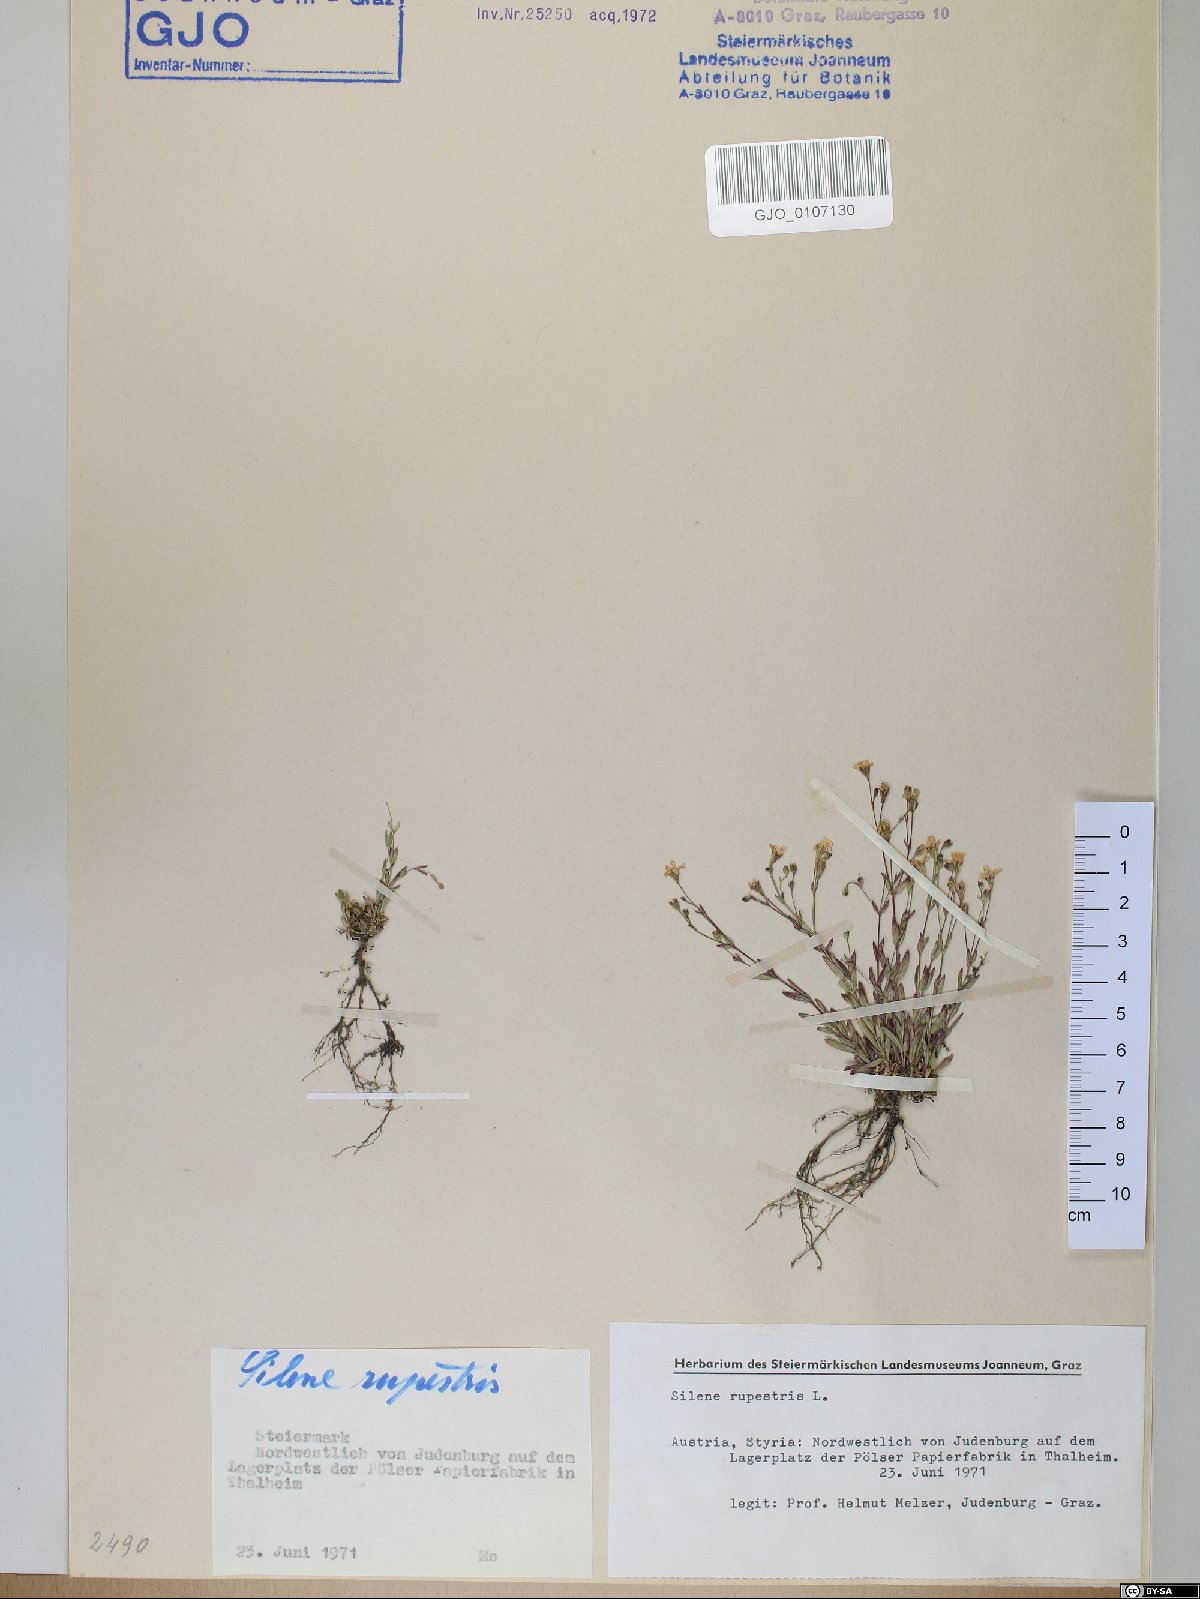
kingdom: Plantae
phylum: Tracheophyta
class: Magnoliopsida
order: Caryophyllales
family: Caryophyllaceae
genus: Atocion
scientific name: Atocion rupestre
